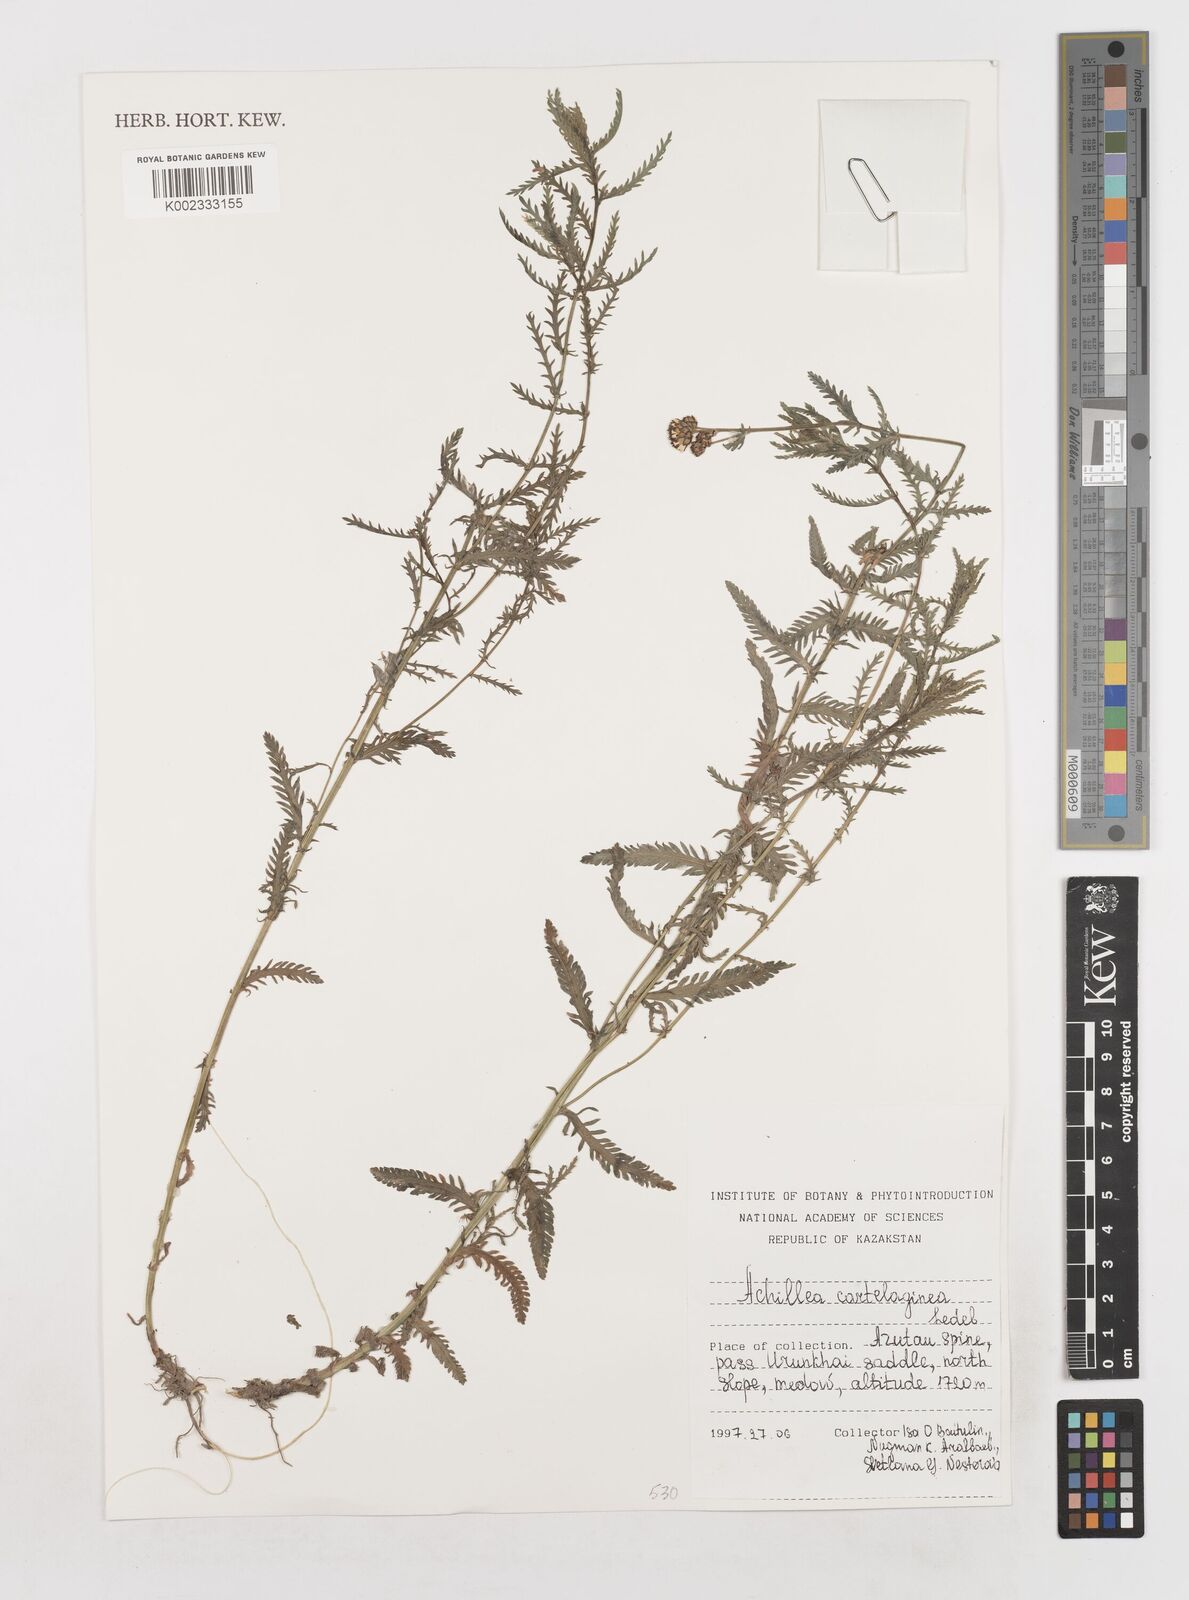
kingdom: Plantae
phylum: Tracheophyta
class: Magnoliopsida
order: Asterales
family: Asteraceae
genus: Achillea
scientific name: Achillea salicifolia
